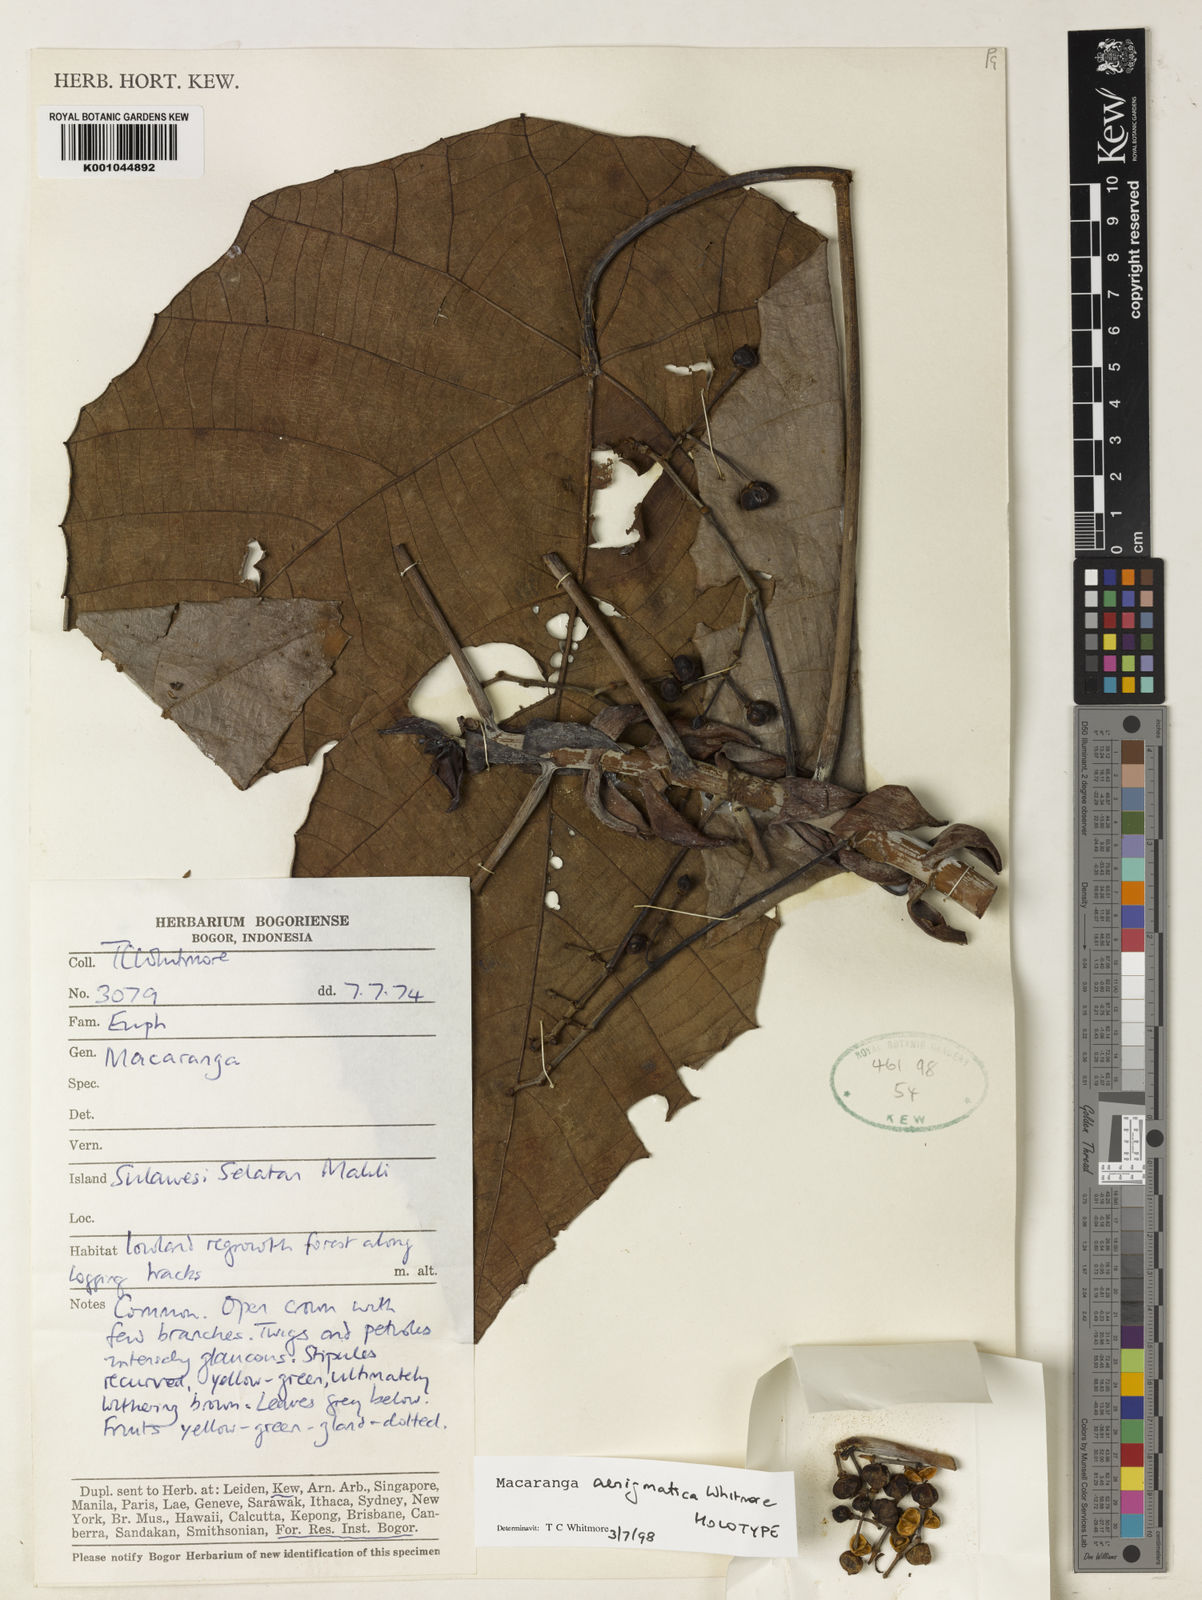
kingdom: Plantae
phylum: Tracheophyta
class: Magnoliopsida
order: Malpighiales
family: Euphorbiaceae
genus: Macaranga
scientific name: Macaranga aenigmatica
